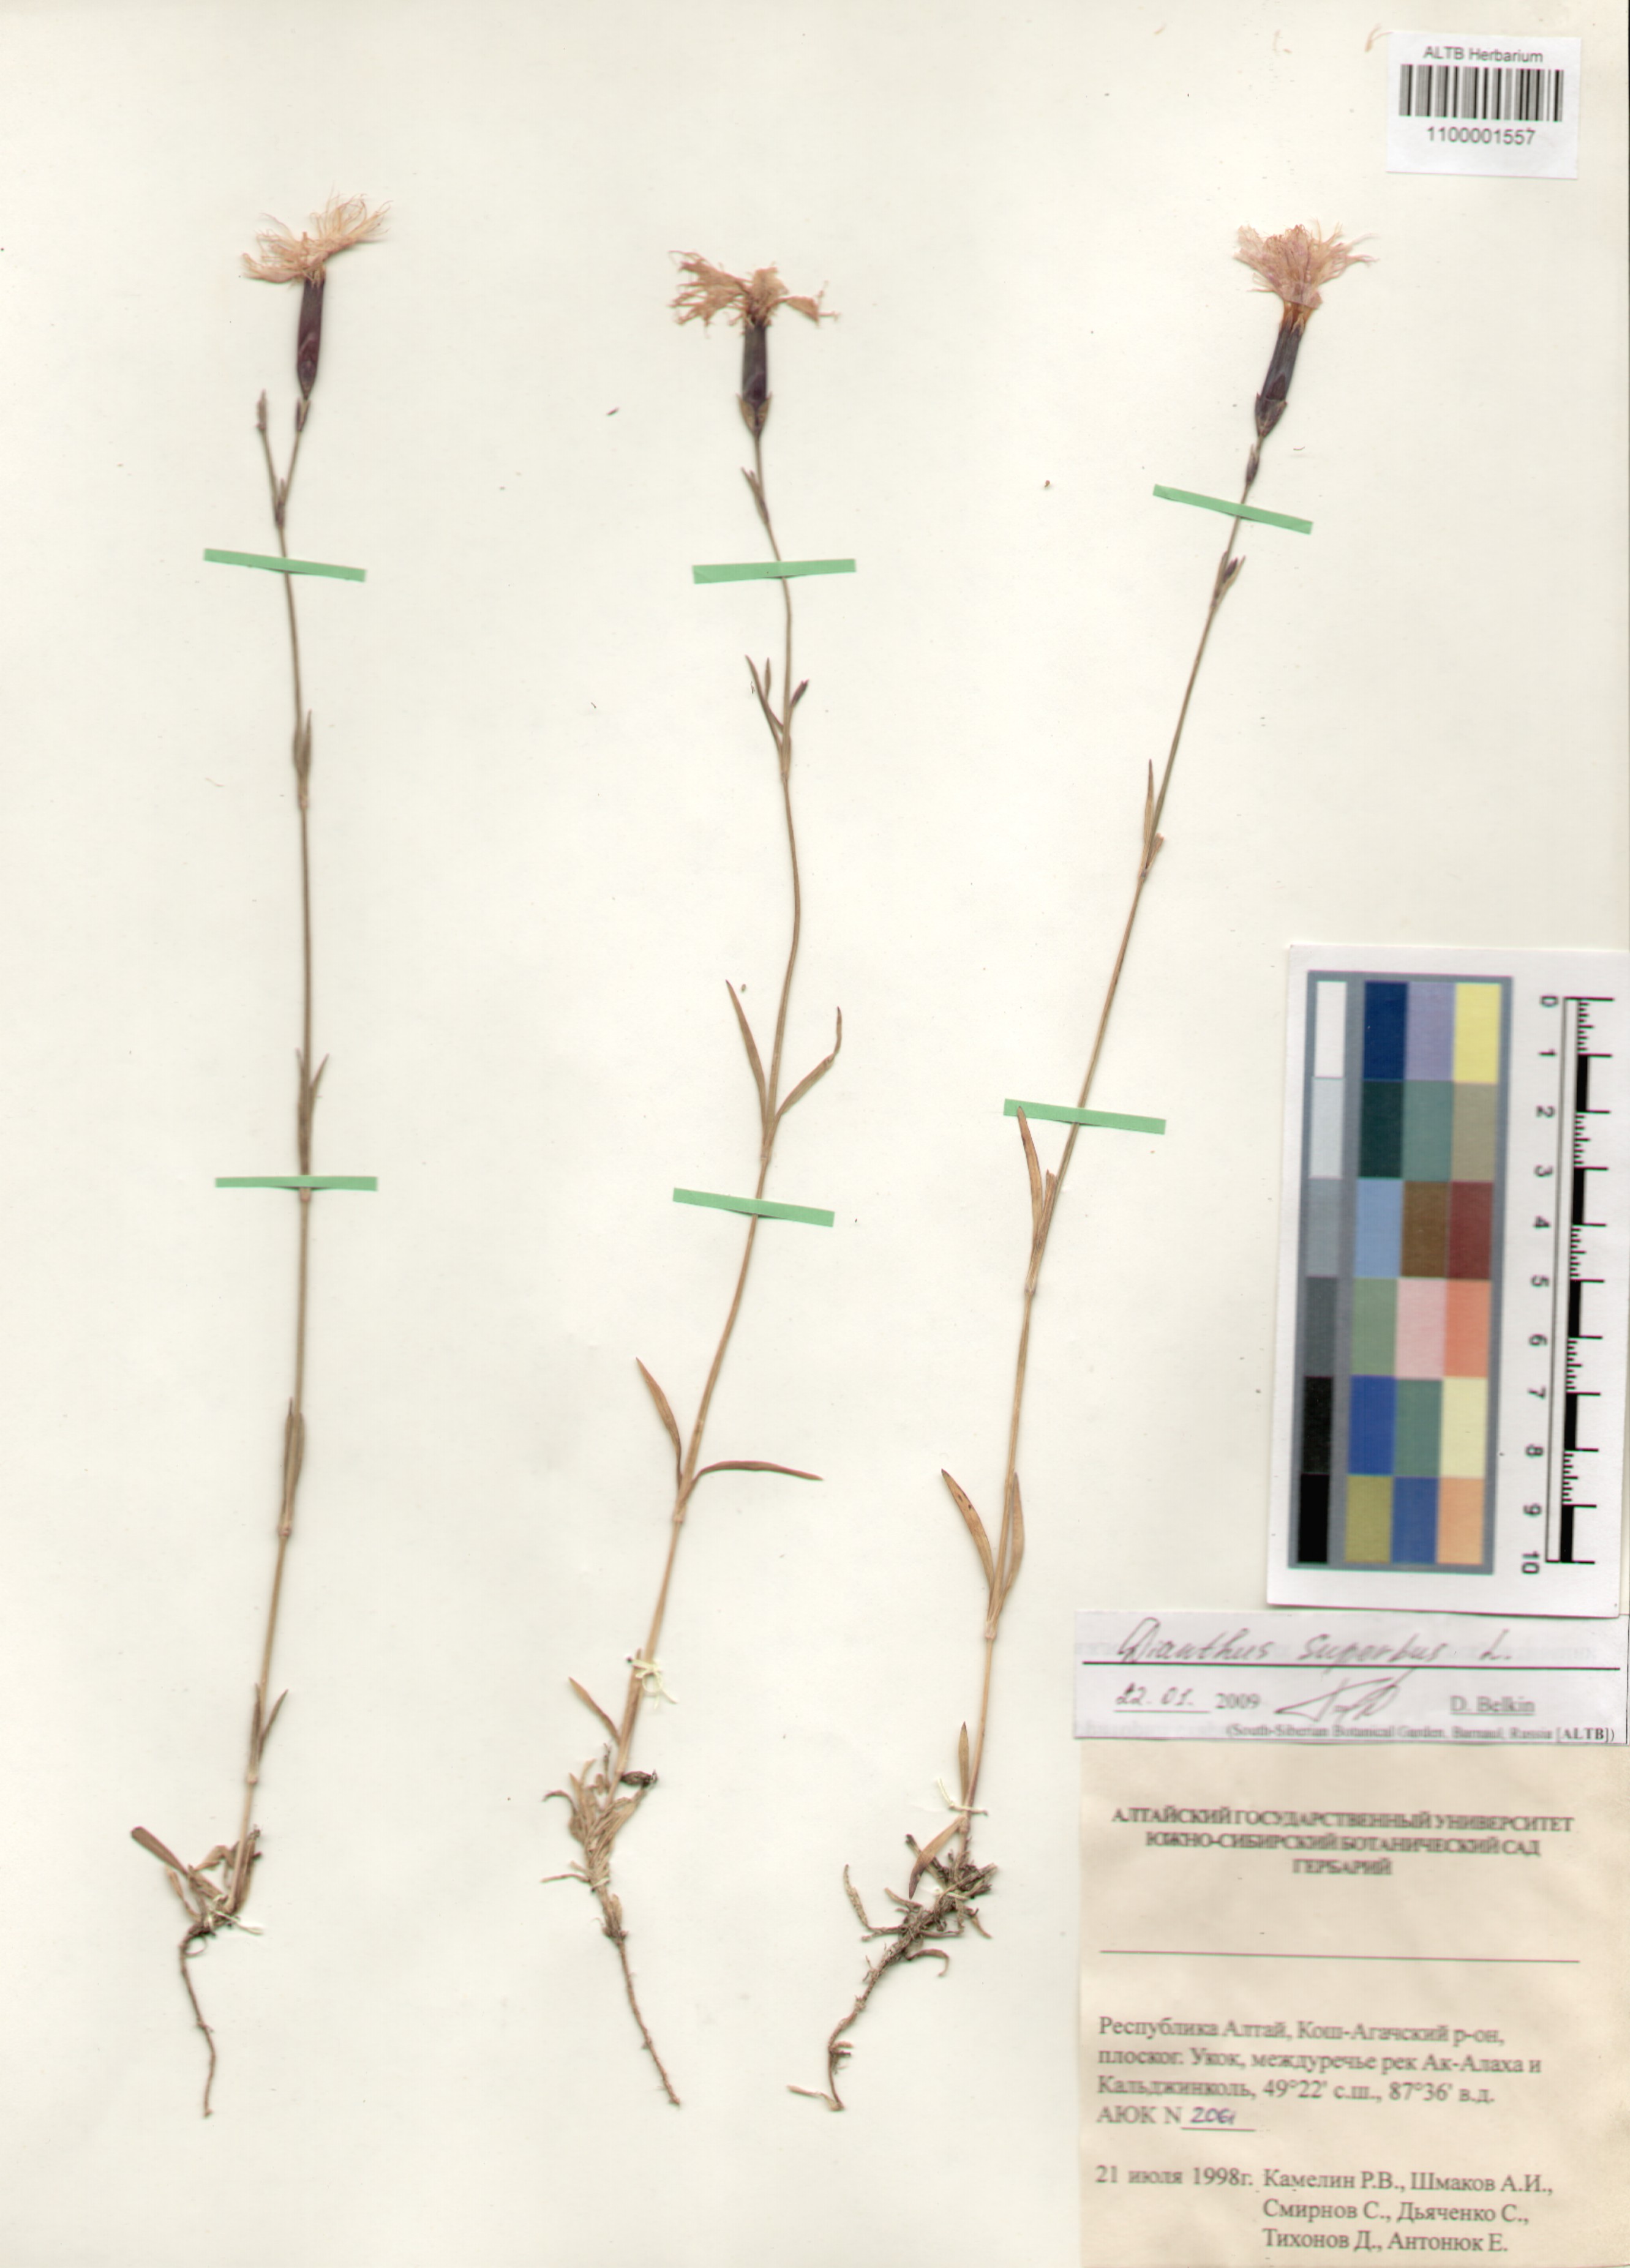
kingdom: Plantae
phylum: Tracheophyta
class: Magnoliopsida
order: Caryophyllales
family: Caryophyllaceae
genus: Dianthus
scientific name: Dianthus superbus
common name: Fringed pink
